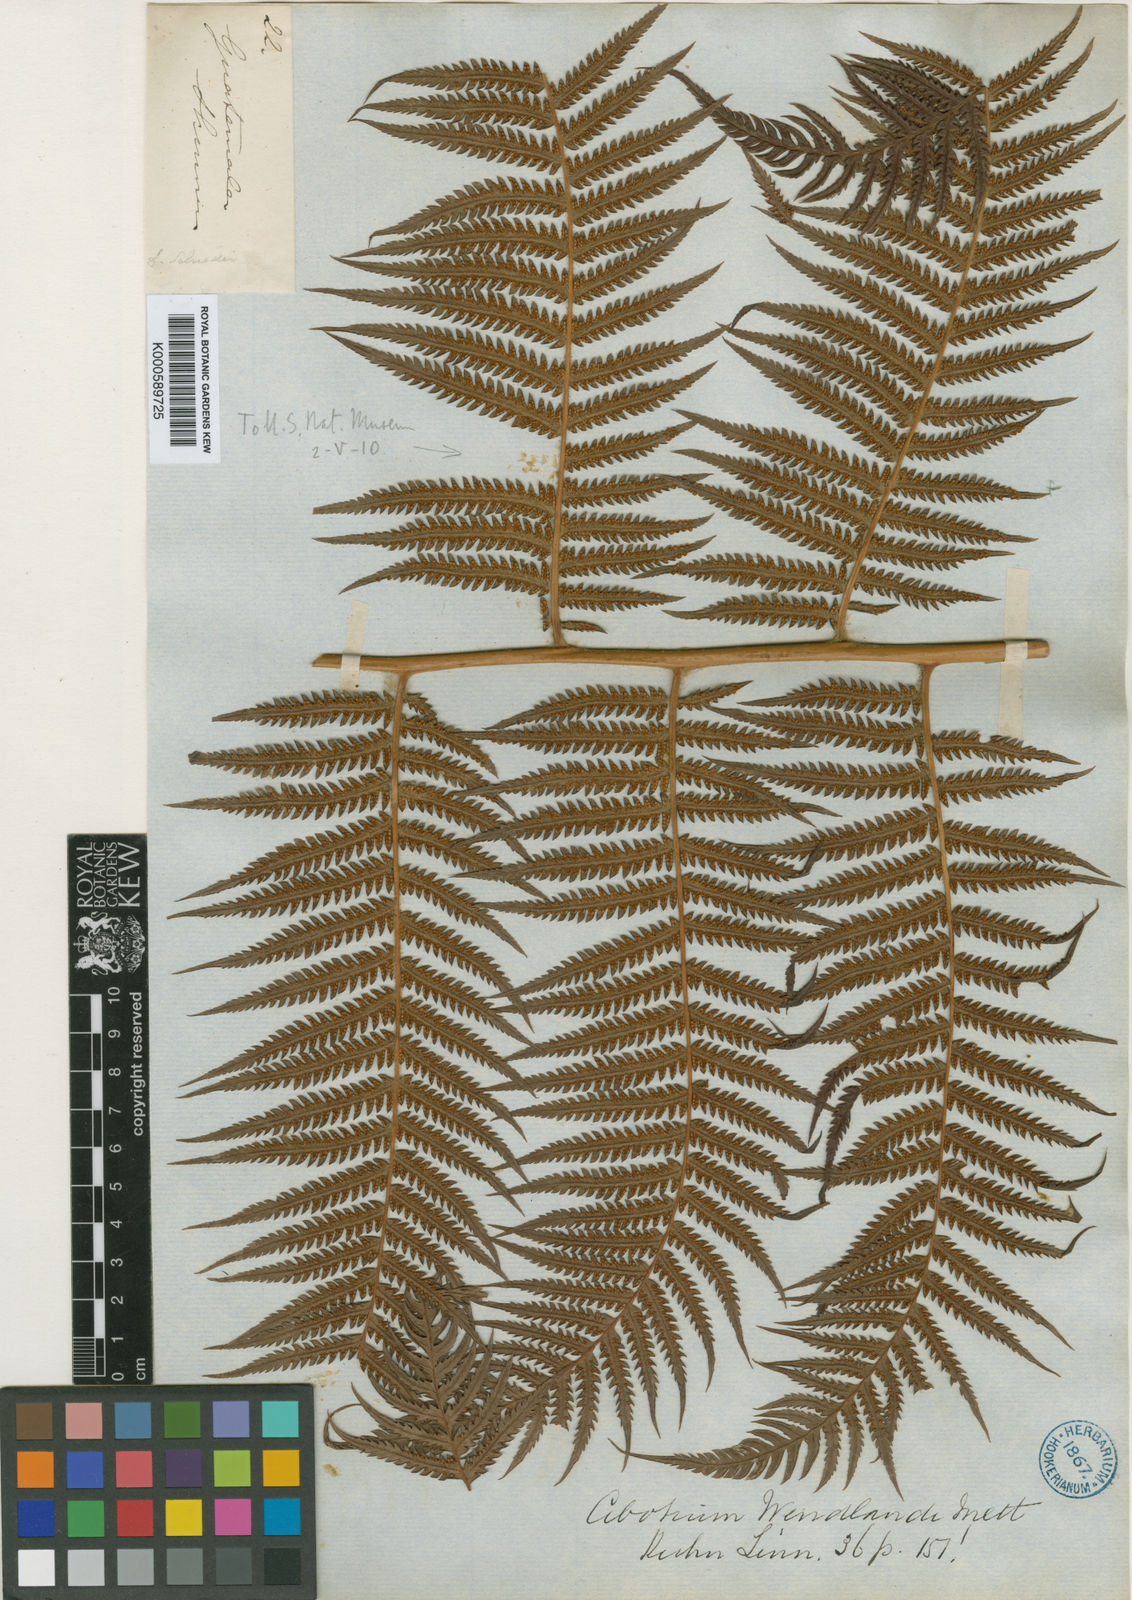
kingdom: Plantae
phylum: Tracheophyta
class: Polypodiopsida
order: Cyatheales
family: Cibotiaceae
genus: Cibotium
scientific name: Cibotium
